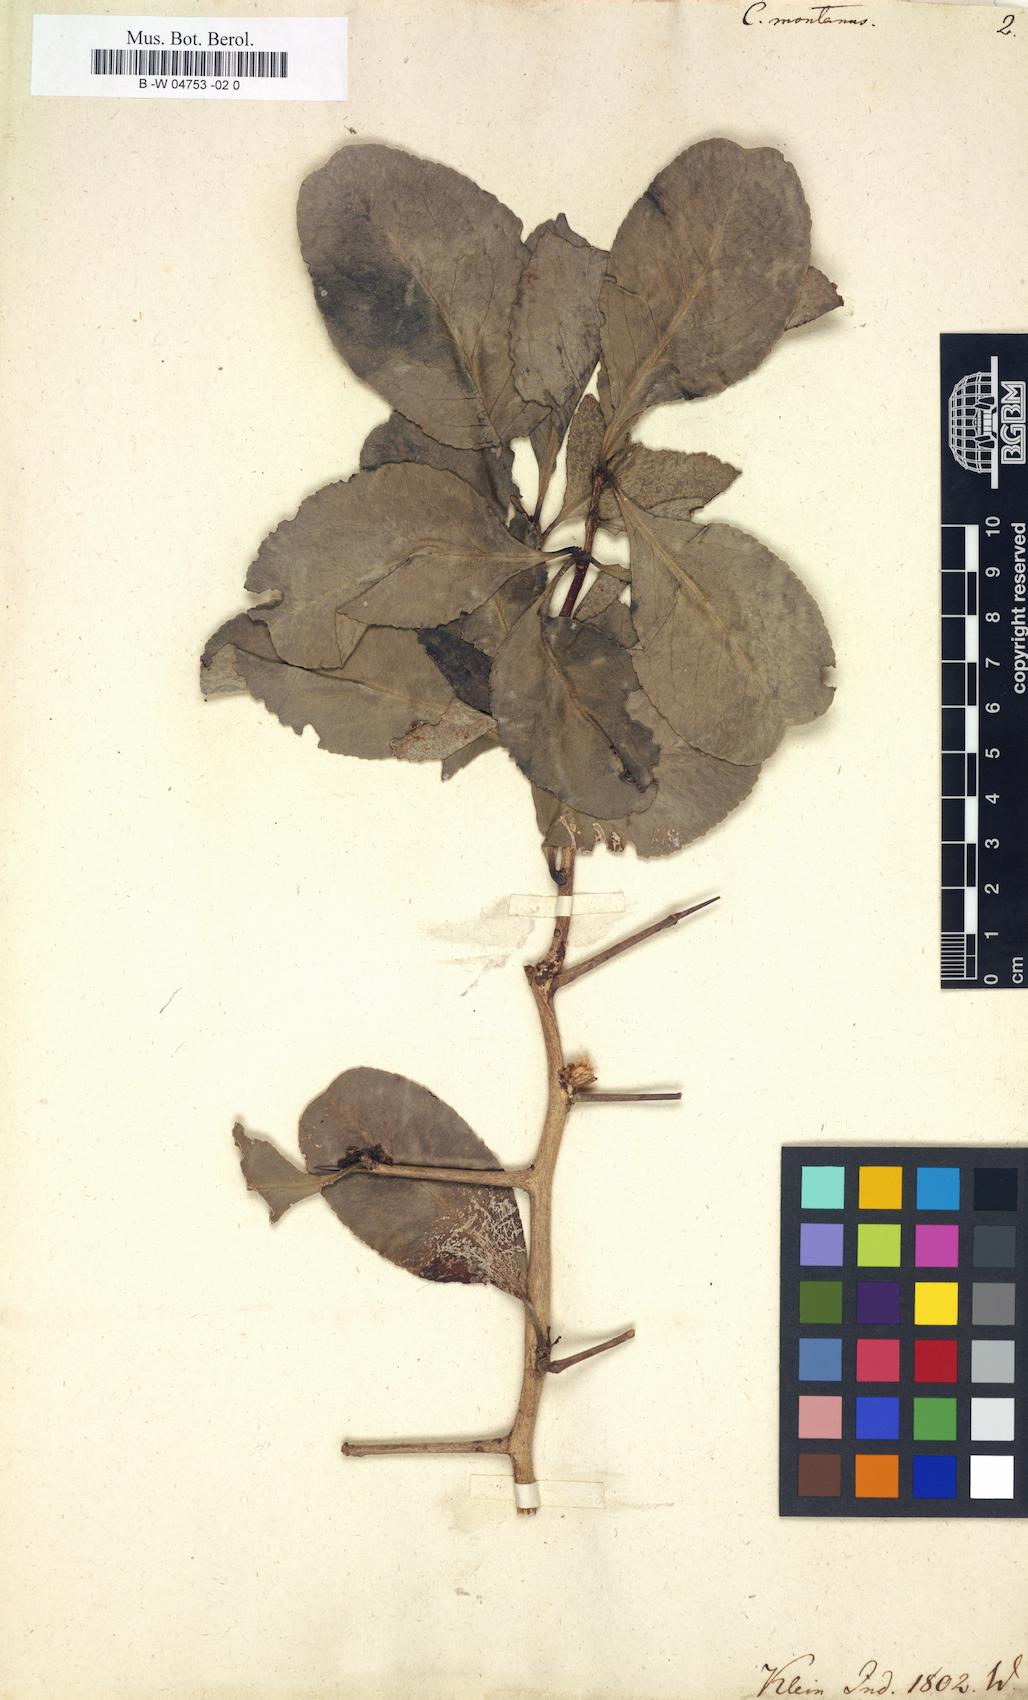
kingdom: Plantae
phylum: Tracheophyta
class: Magnoliopsida
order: Celastrales
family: Celastraceae
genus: Celastrus
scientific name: Celastrus montanus
